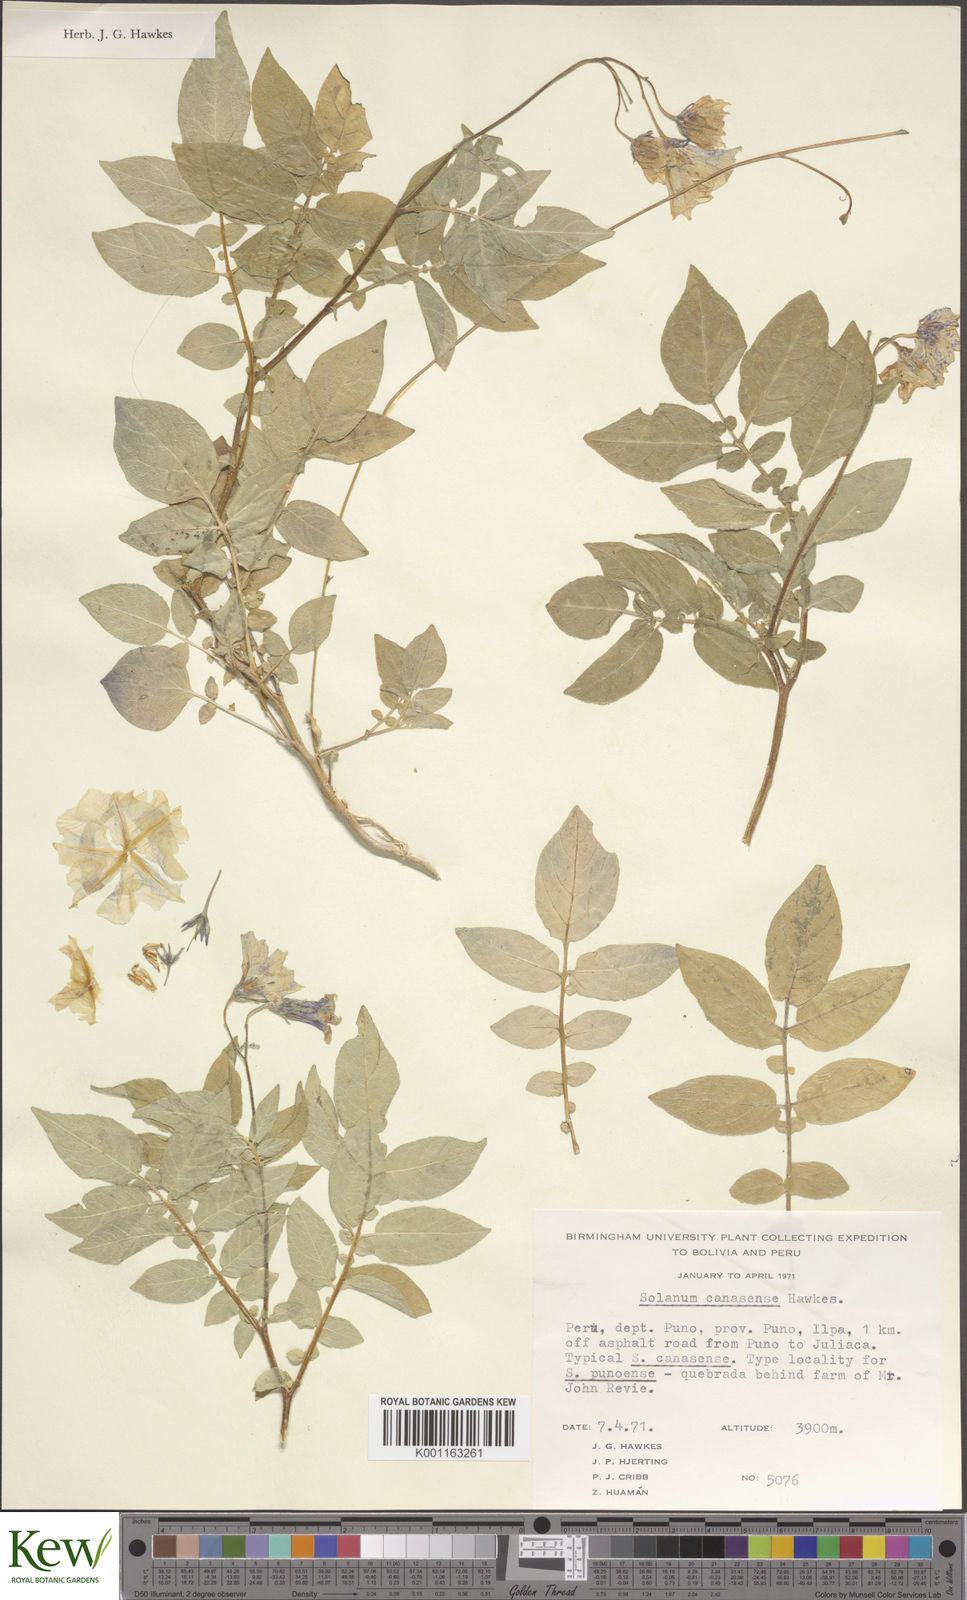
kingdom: Plantae
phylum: Tracheophyta
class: Magnoliopsida
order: Solanales
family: Solanaceae
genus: Solanum
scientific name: Solanum candolleanum
